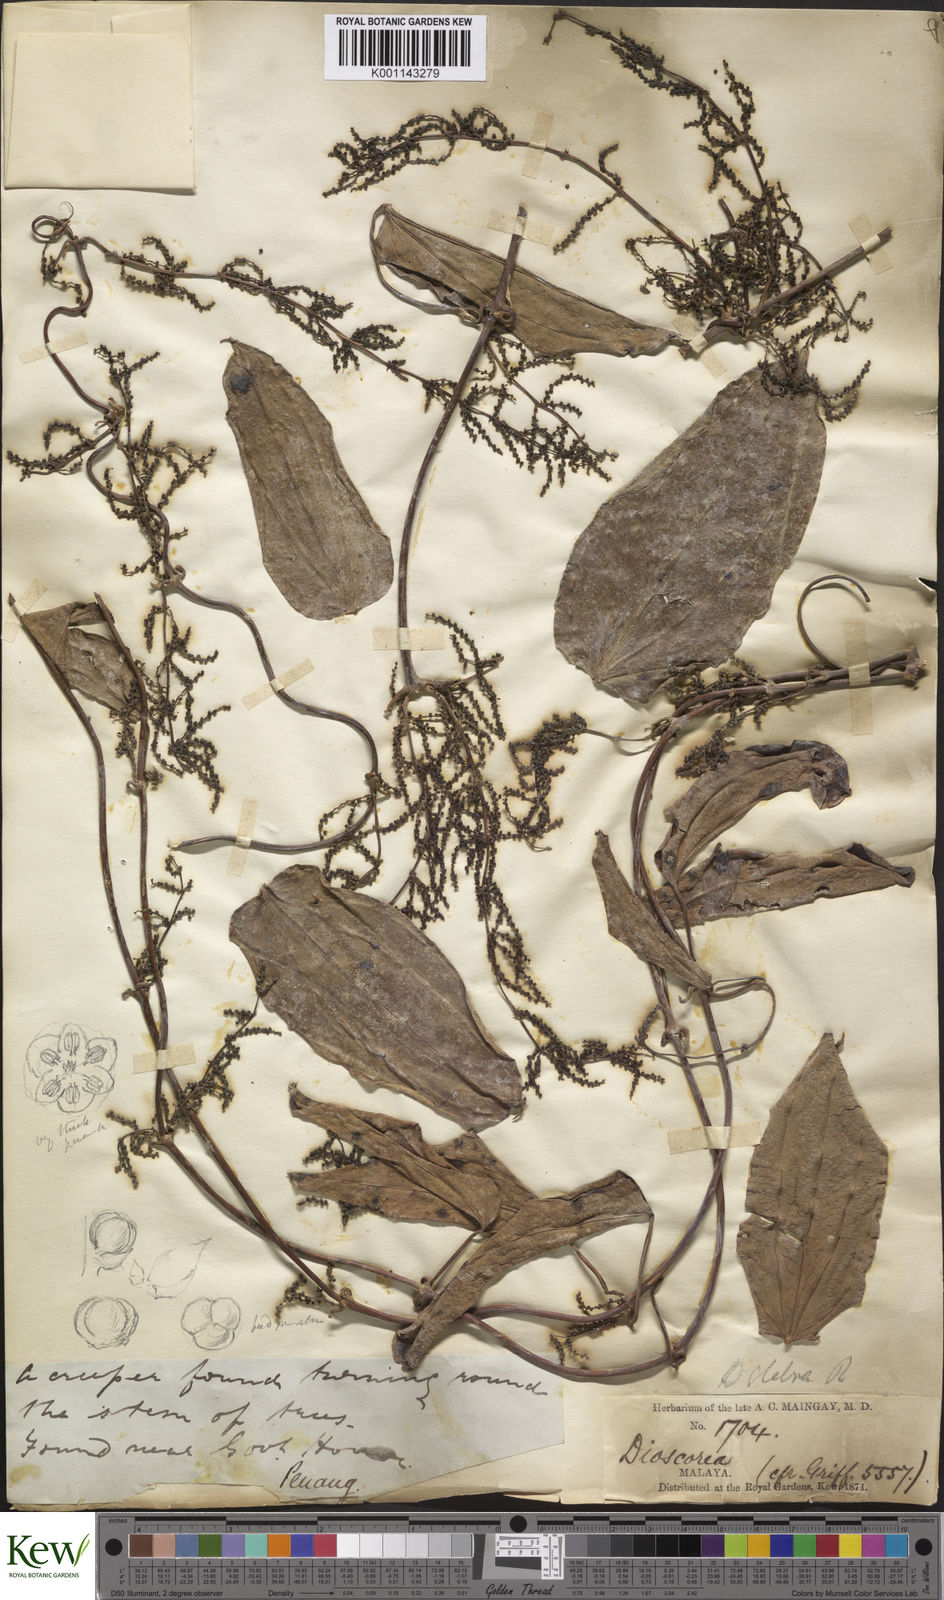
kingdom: Plantae
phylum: Tracheophyta
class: Liliopsida
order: Dioscoreales
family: Dioscoreaceae
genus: Dioscorea
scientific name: Dioscorea glabra
